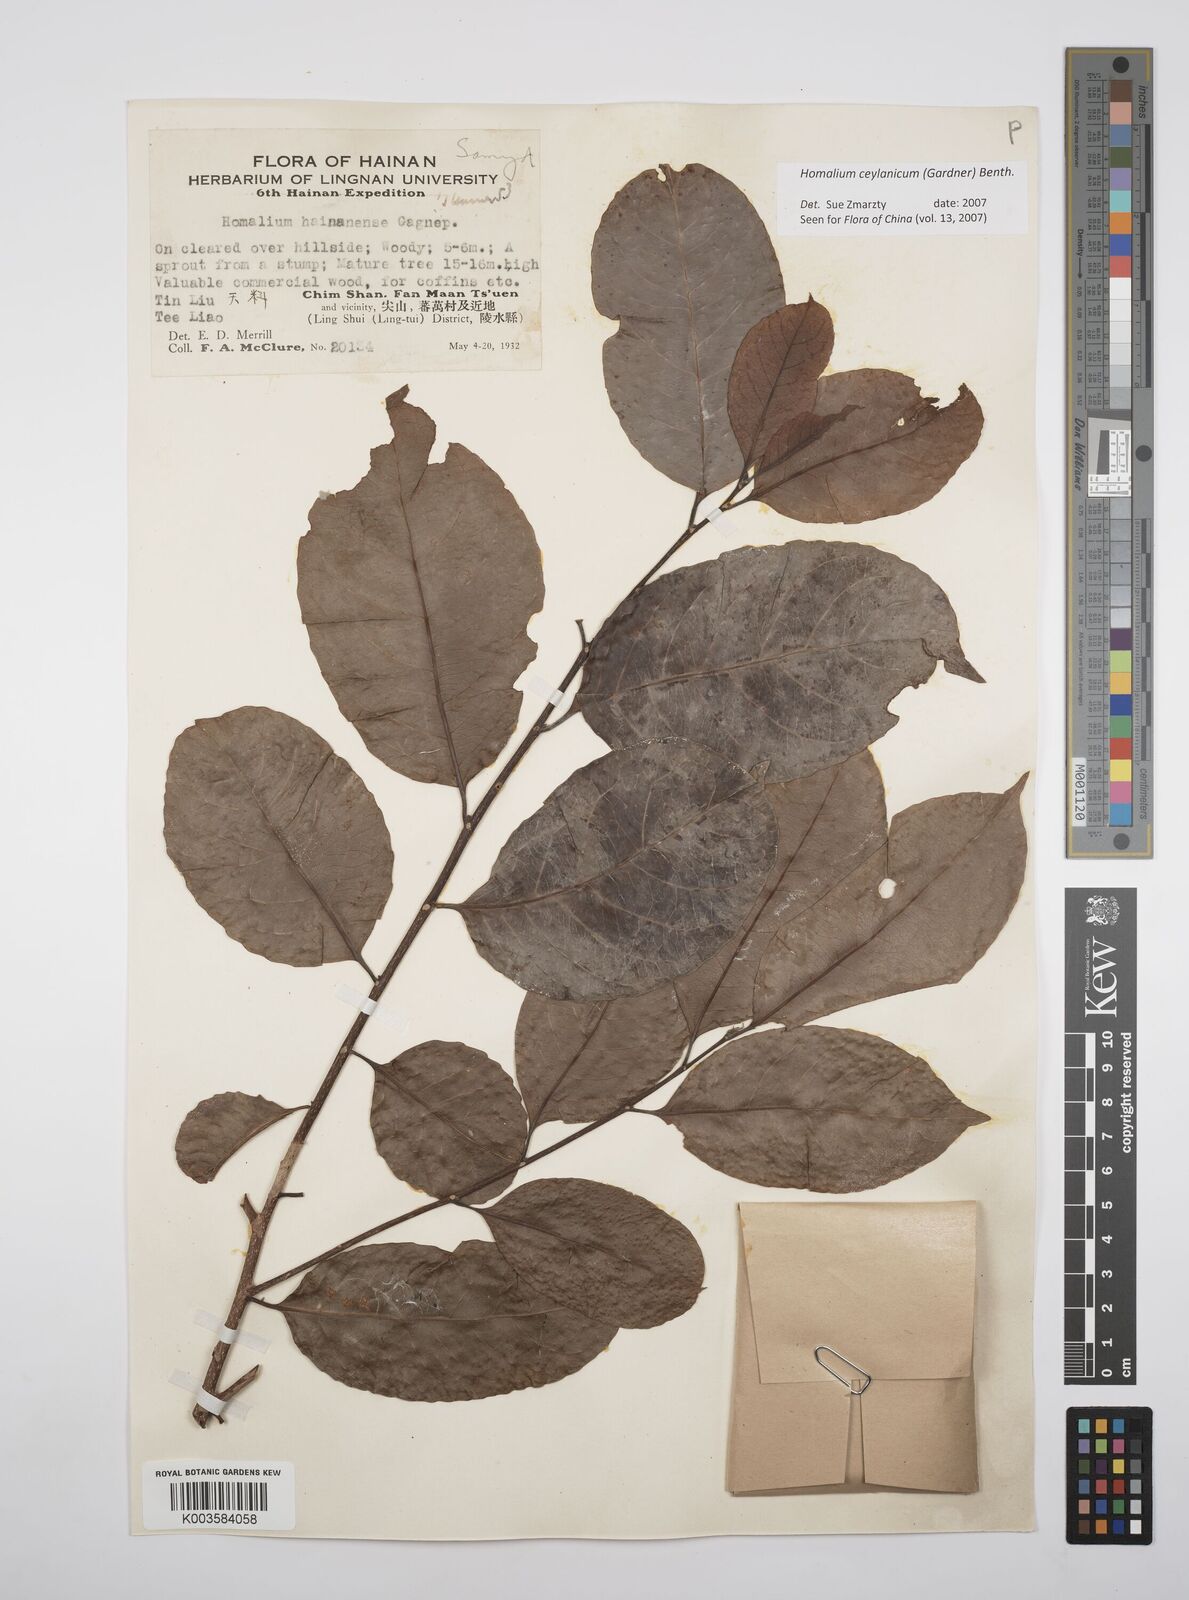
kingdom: Plantae
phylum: Tracheophyta
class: Magnoliopsida
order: Malpighiales
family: Salicaceae
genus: Homalium
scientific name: Homalium ceylanicum
